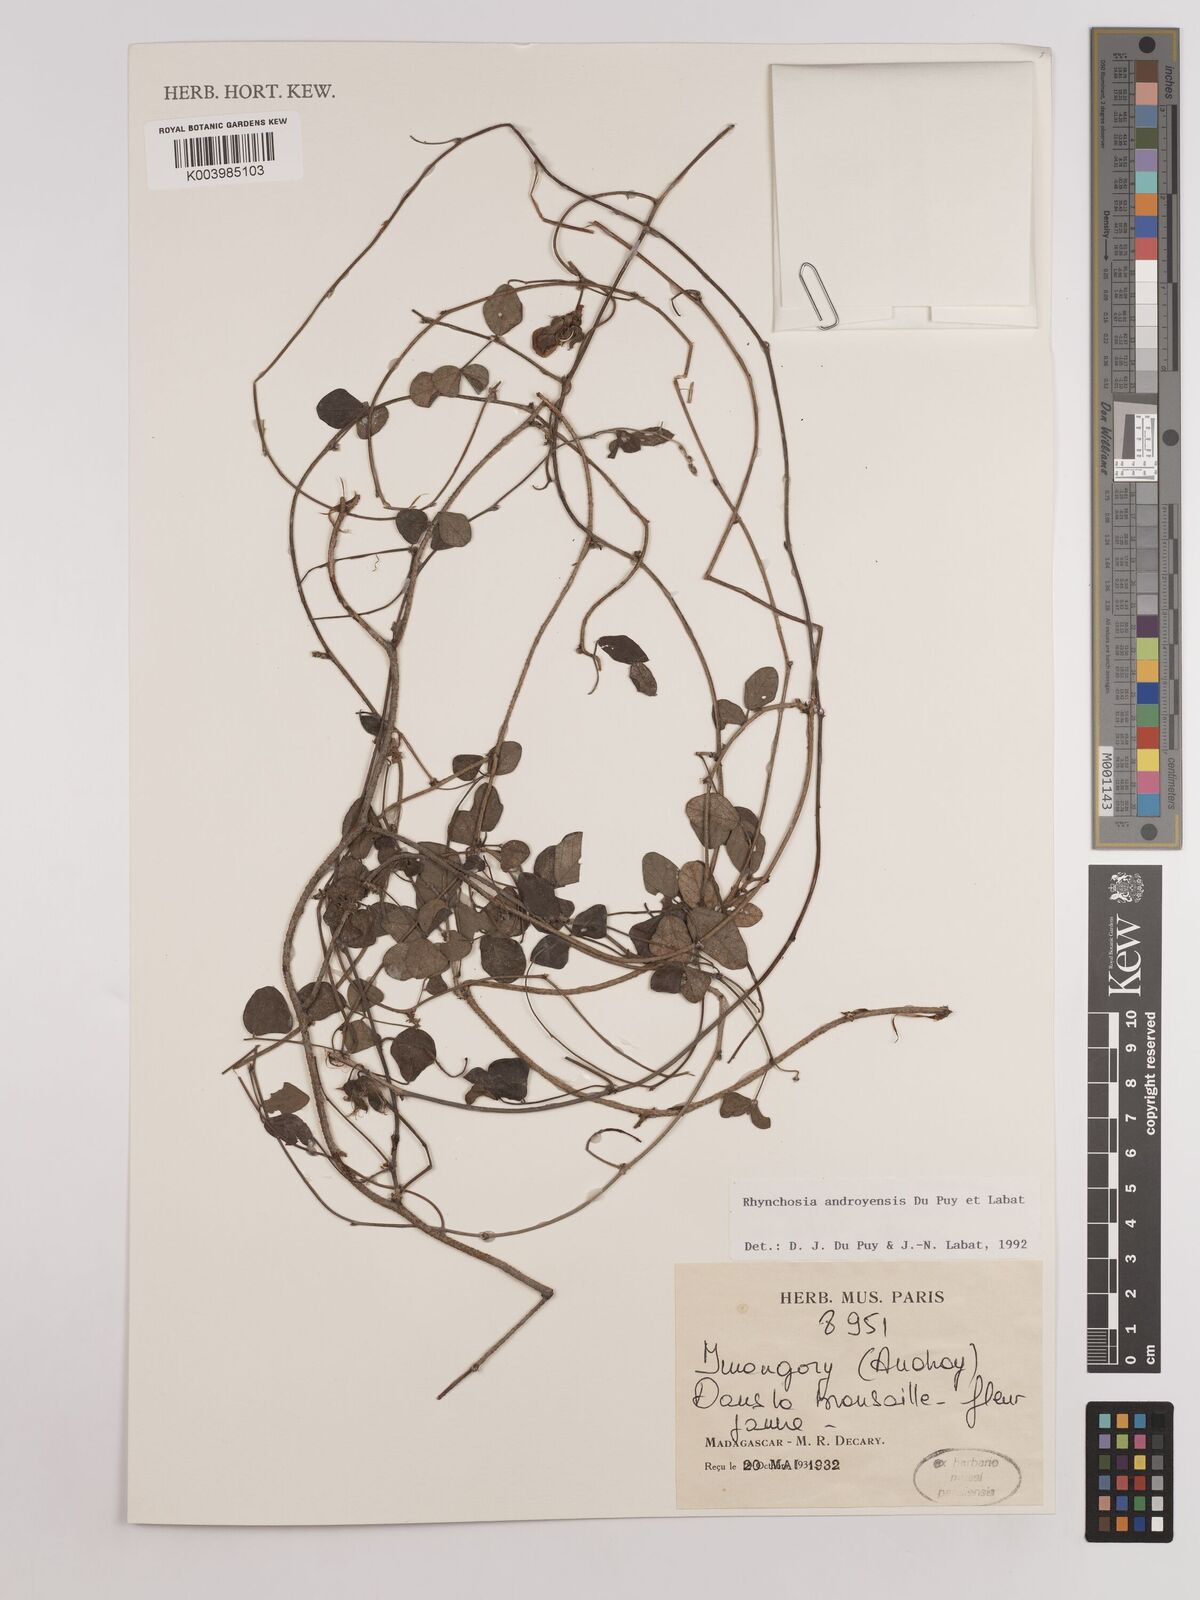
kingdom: Plantae
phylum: Tracheophyta
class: Magnoliopsida
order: Fabales
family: Fabaceae
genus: Rhynchosia
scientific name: Rhynchosia androyensis
